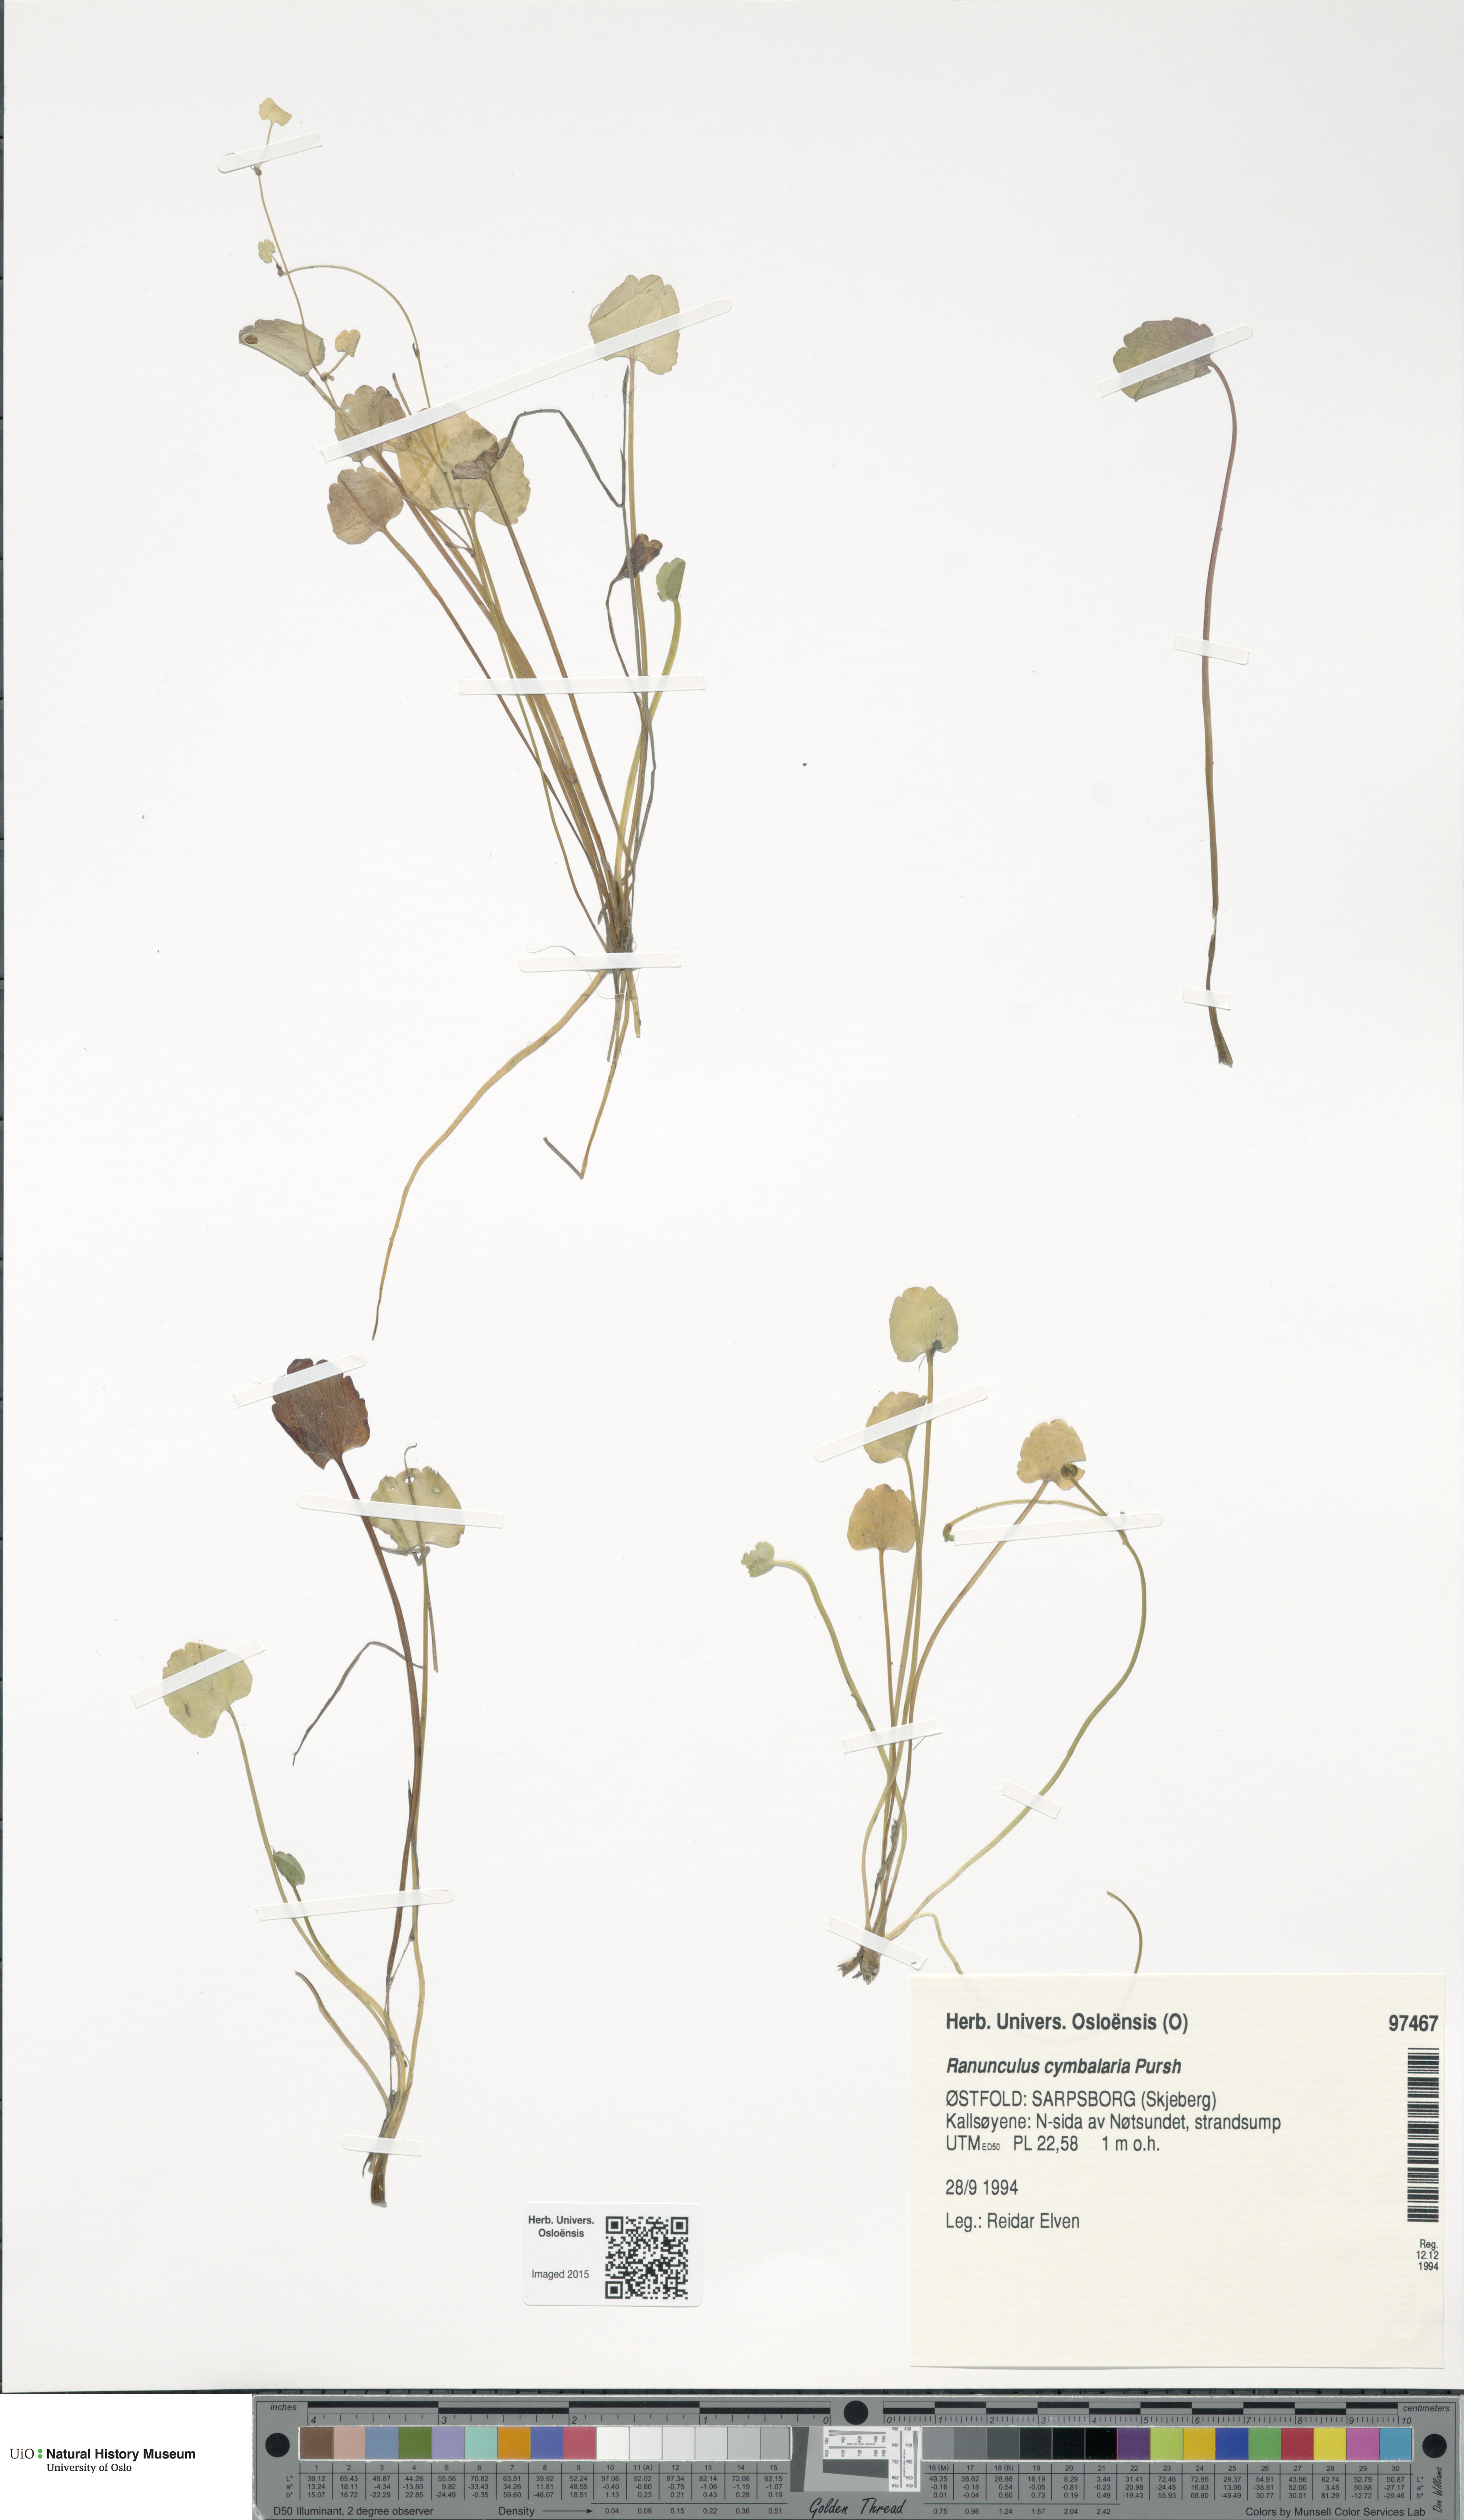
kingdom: Plantae
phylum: Tracheophyta
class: Magnoliopsida
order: Ranunculales
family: Ranunculaceae
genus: Halerpestes
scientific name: Halerpestes cymbalaria
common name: Seaside crowfoot
